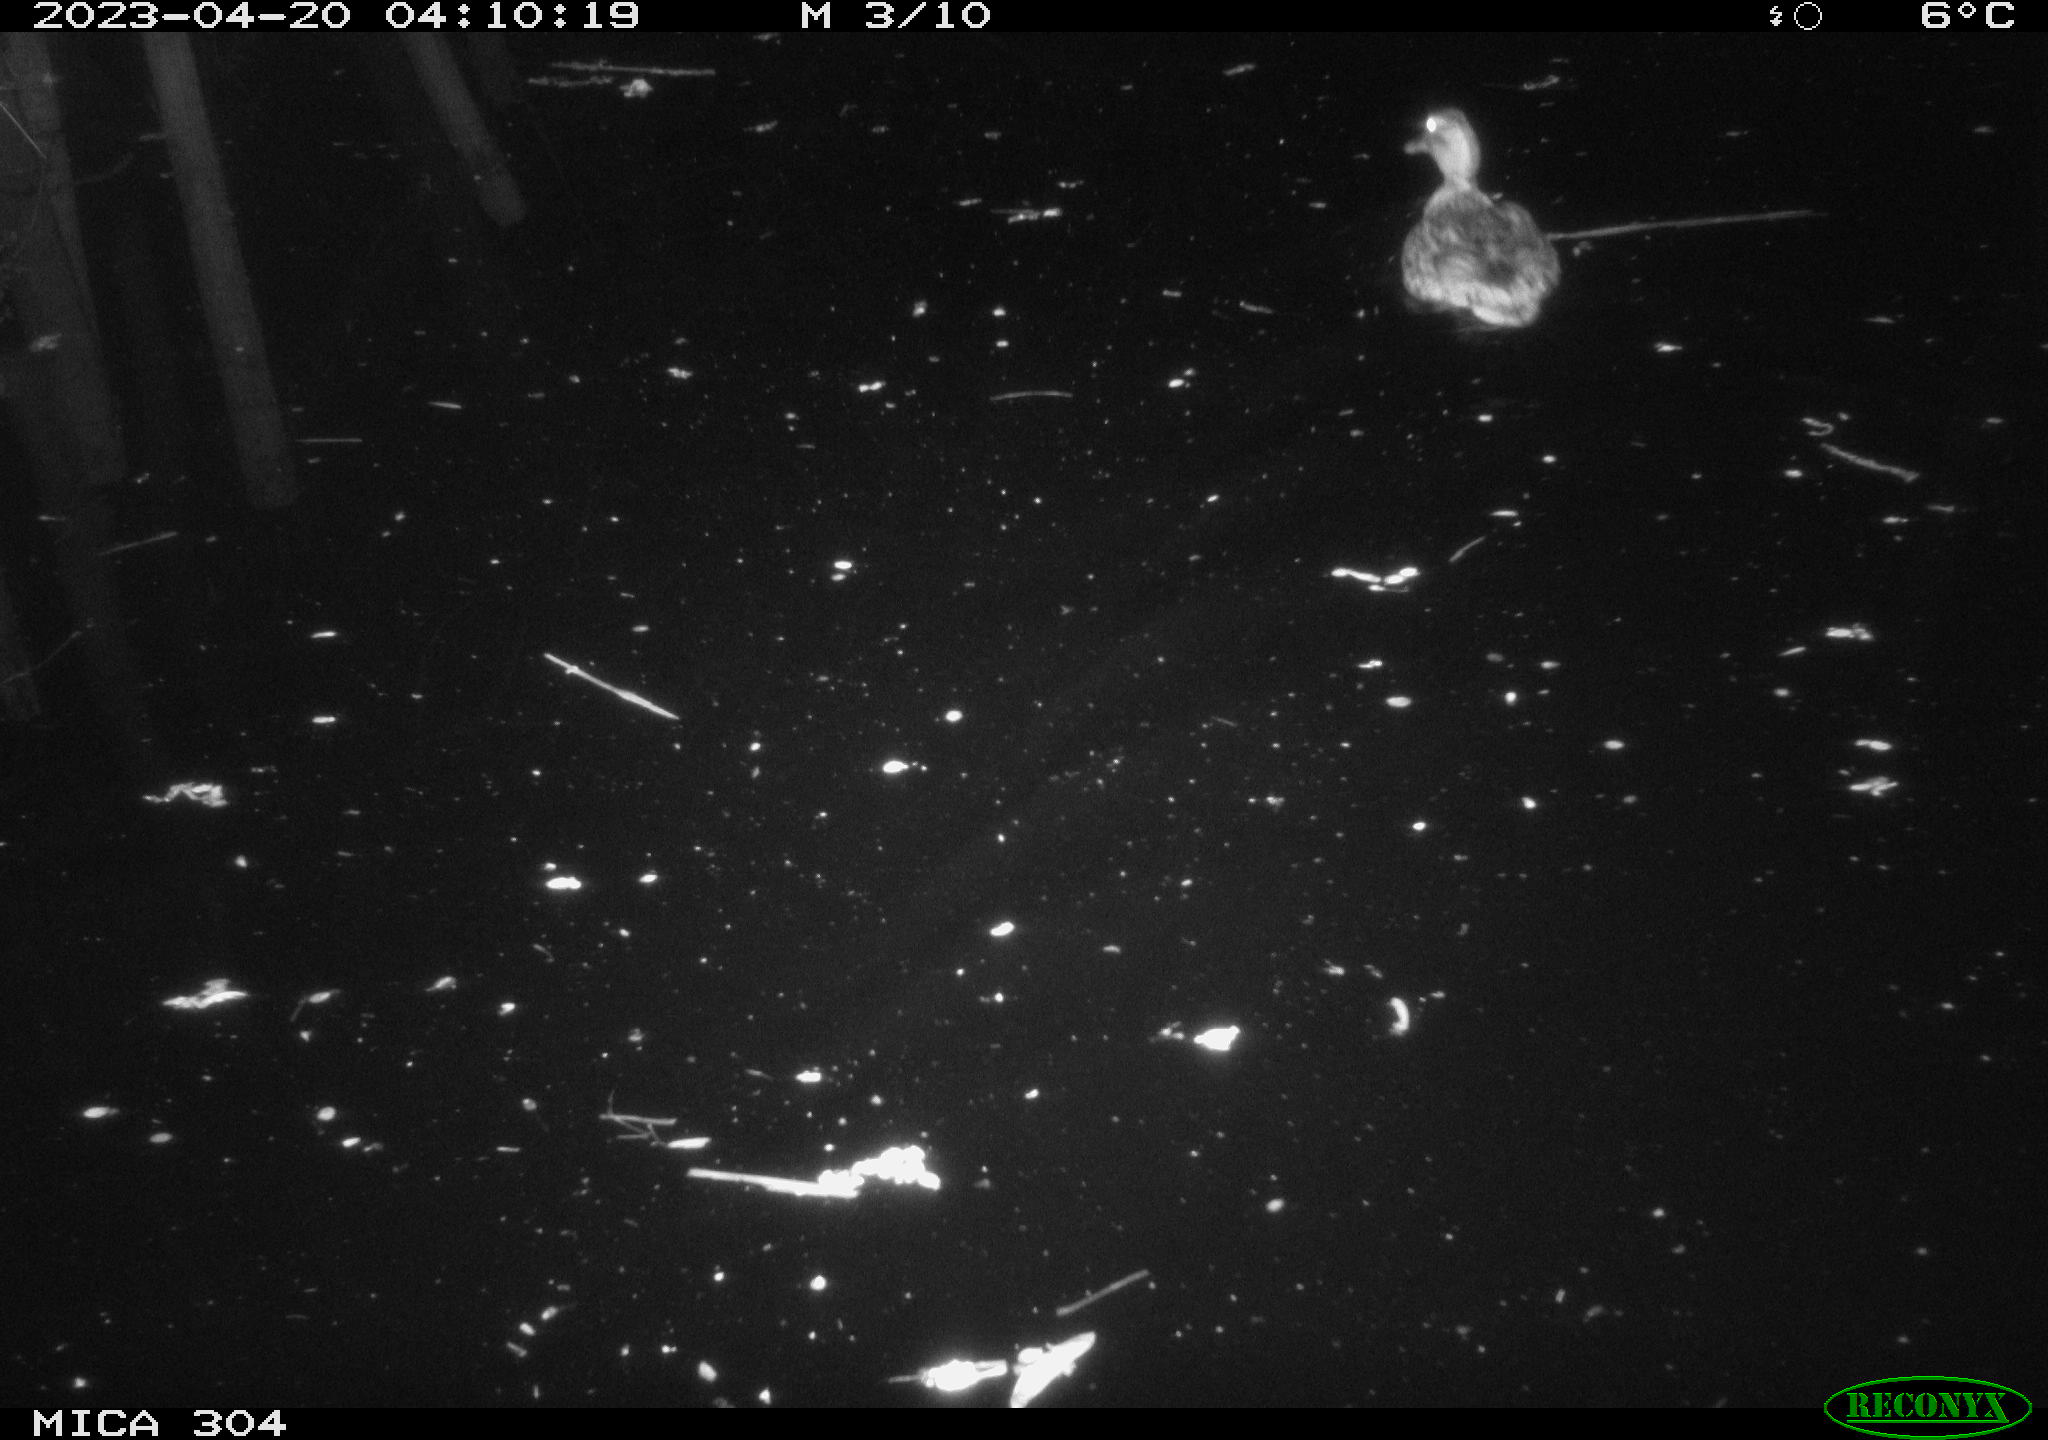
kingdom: Animalia
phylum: Chordata
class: Aves
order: Anseriformes
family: Anatidae
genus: Anas
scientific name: Anas
